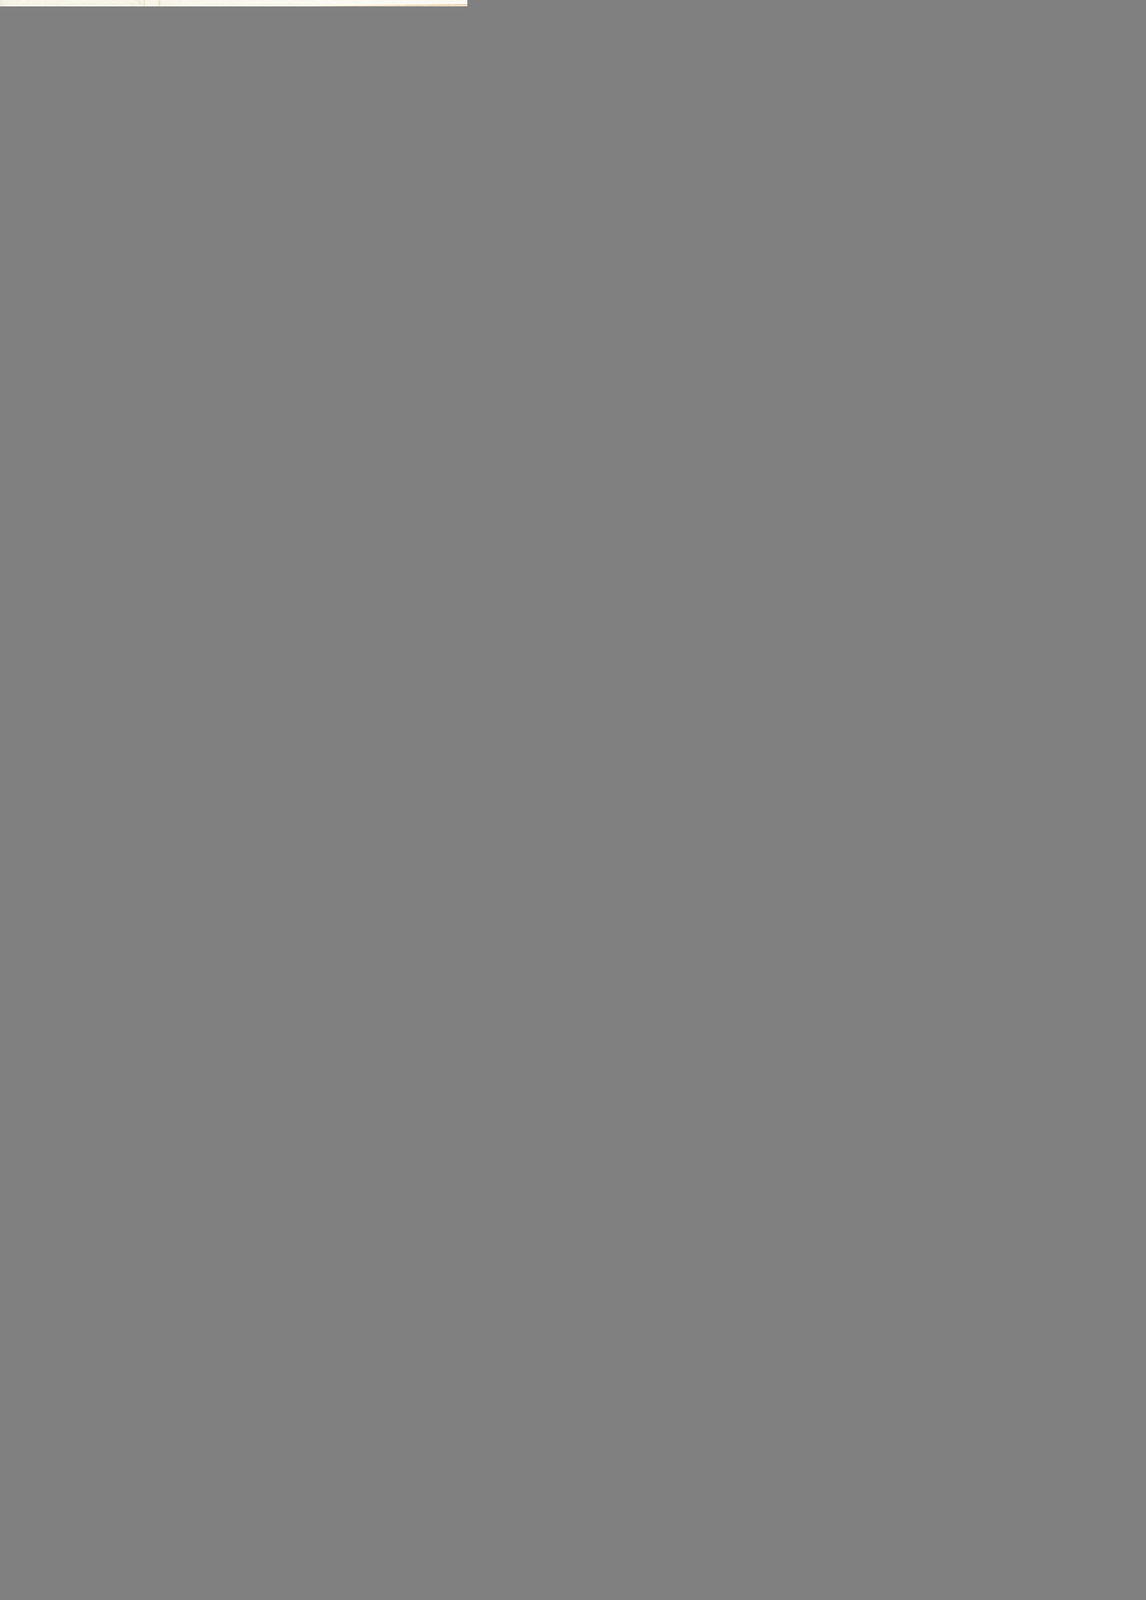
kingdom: Plantae
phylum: Tracheophyta
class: Magnoliopsida
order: Asterales
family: Asteraceae
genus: Koanophyllon
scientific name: Koanophyllon solidaginoides
